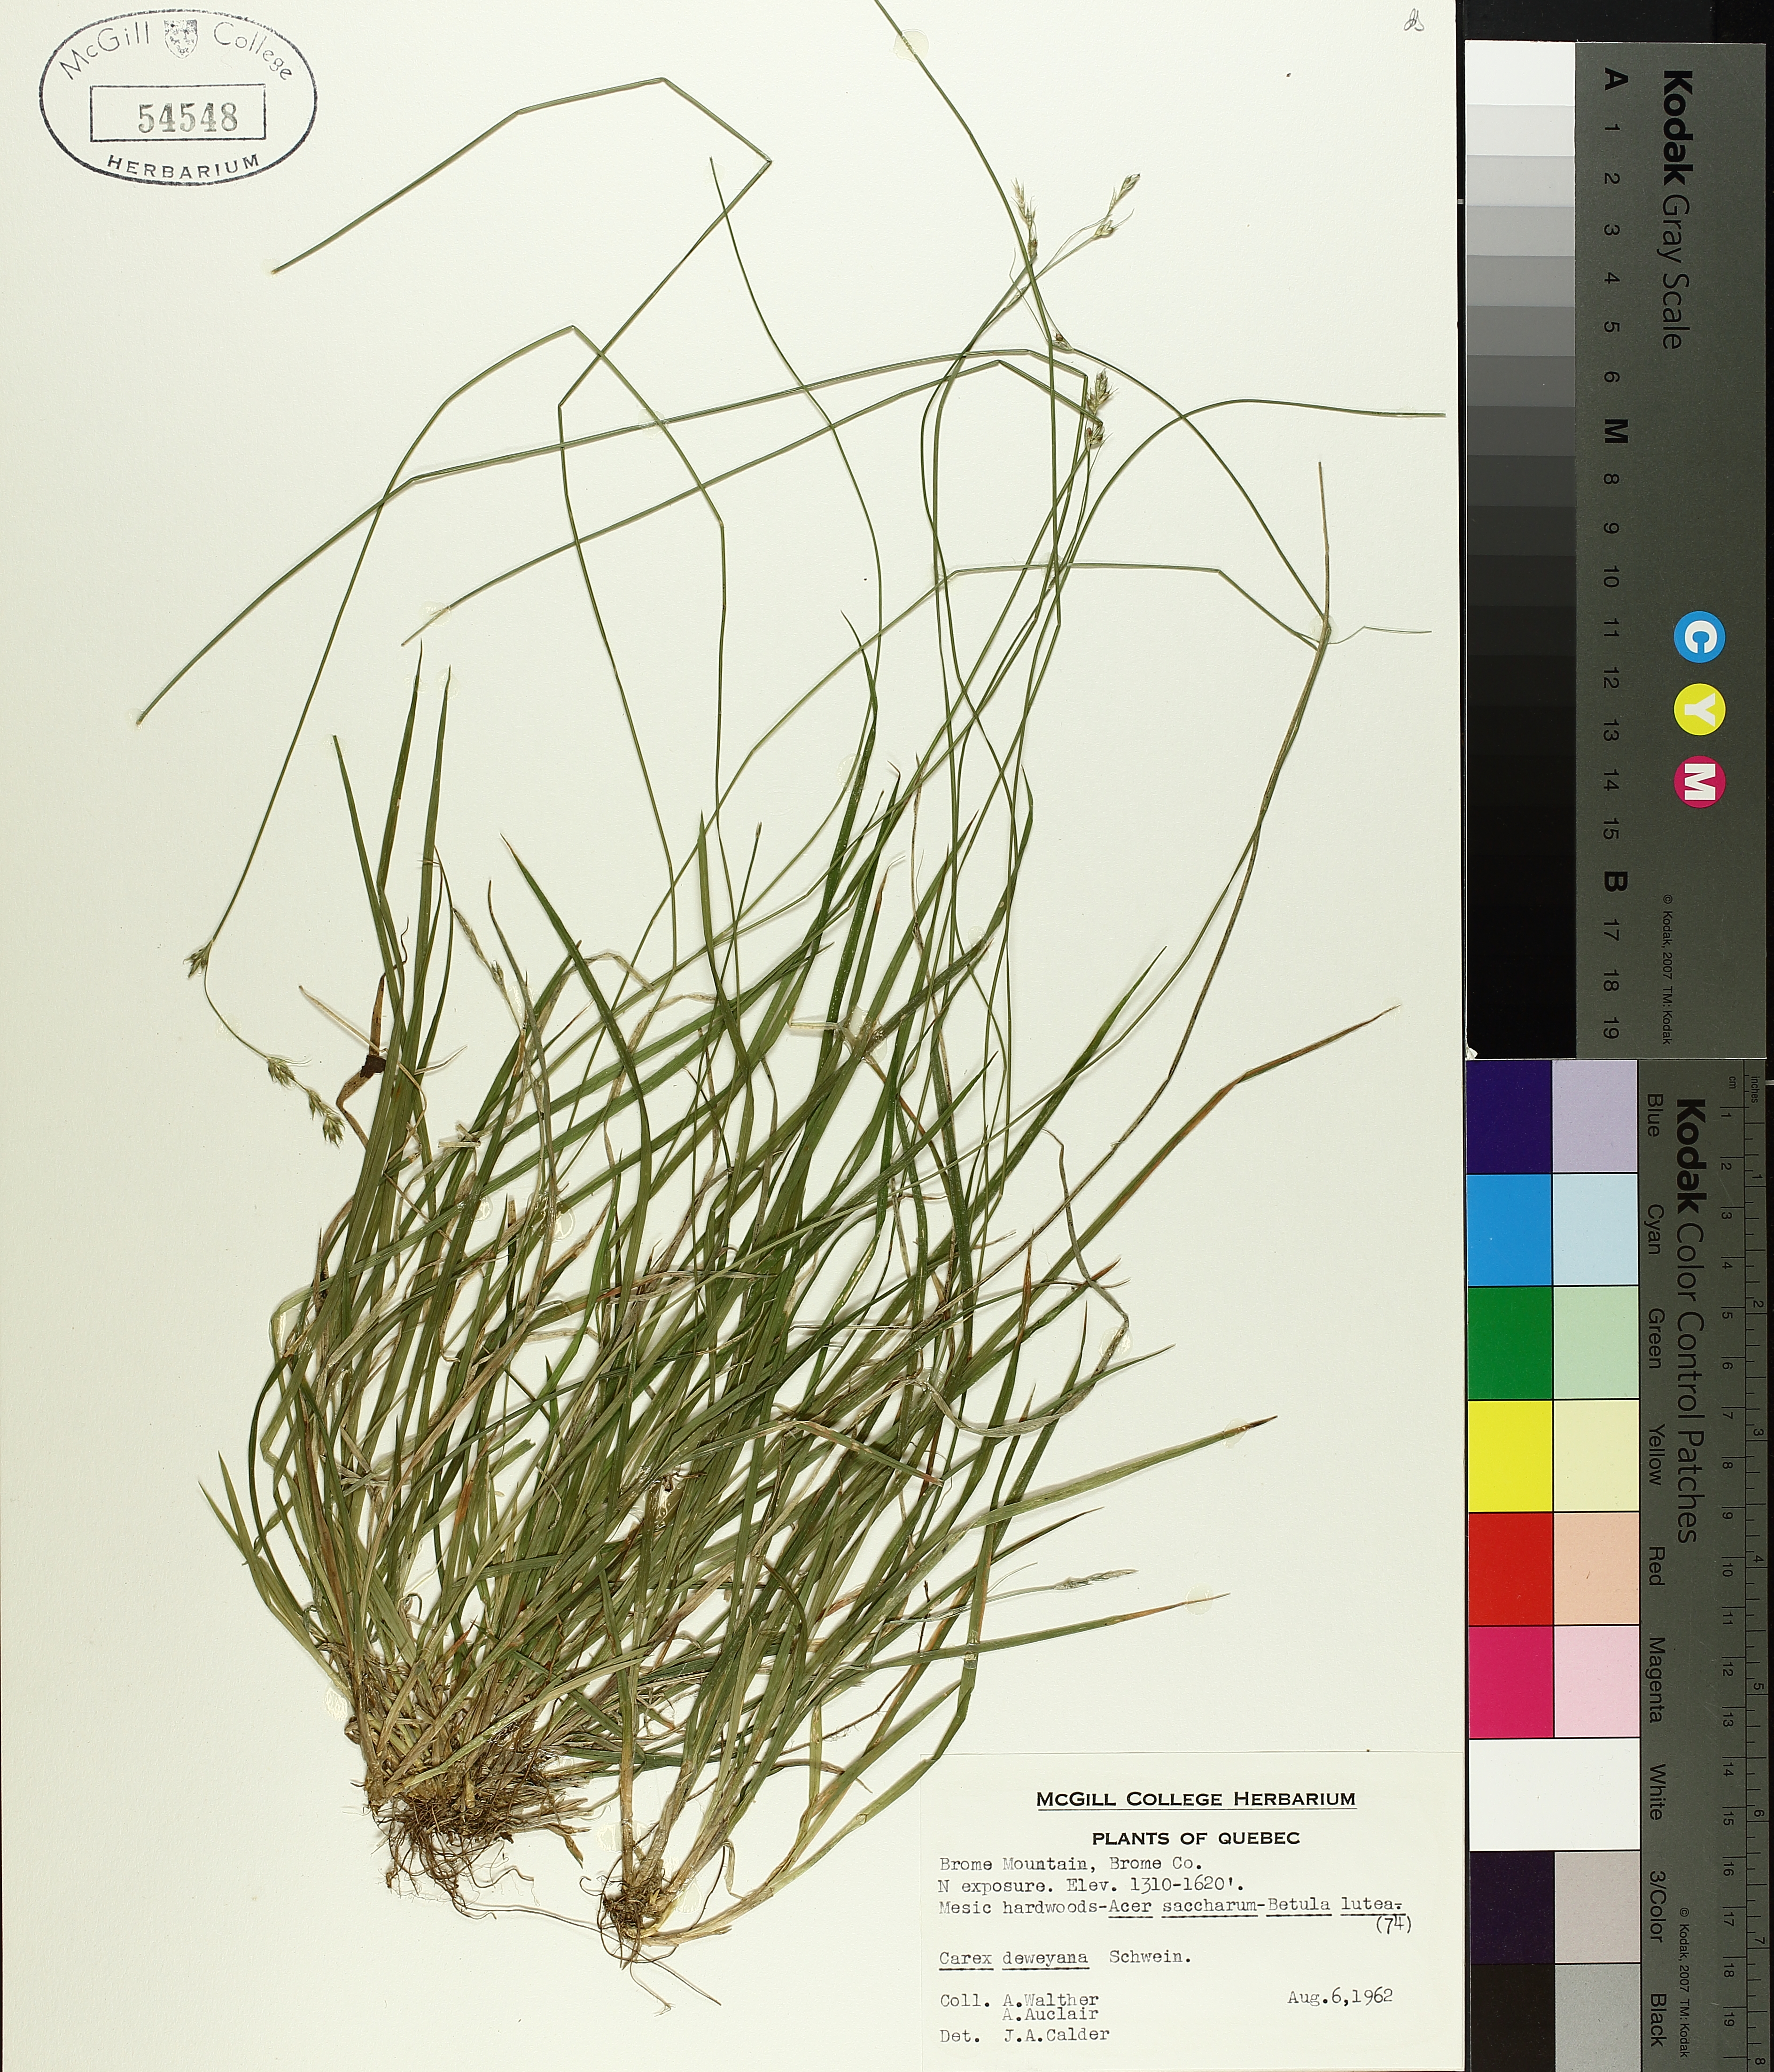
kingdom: Plantae
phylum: Tracheophyta
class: Liliopsida
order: Poales
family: Cyperaceae
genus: Carex
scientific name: Carex deweyana
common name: Dewey's sedge
